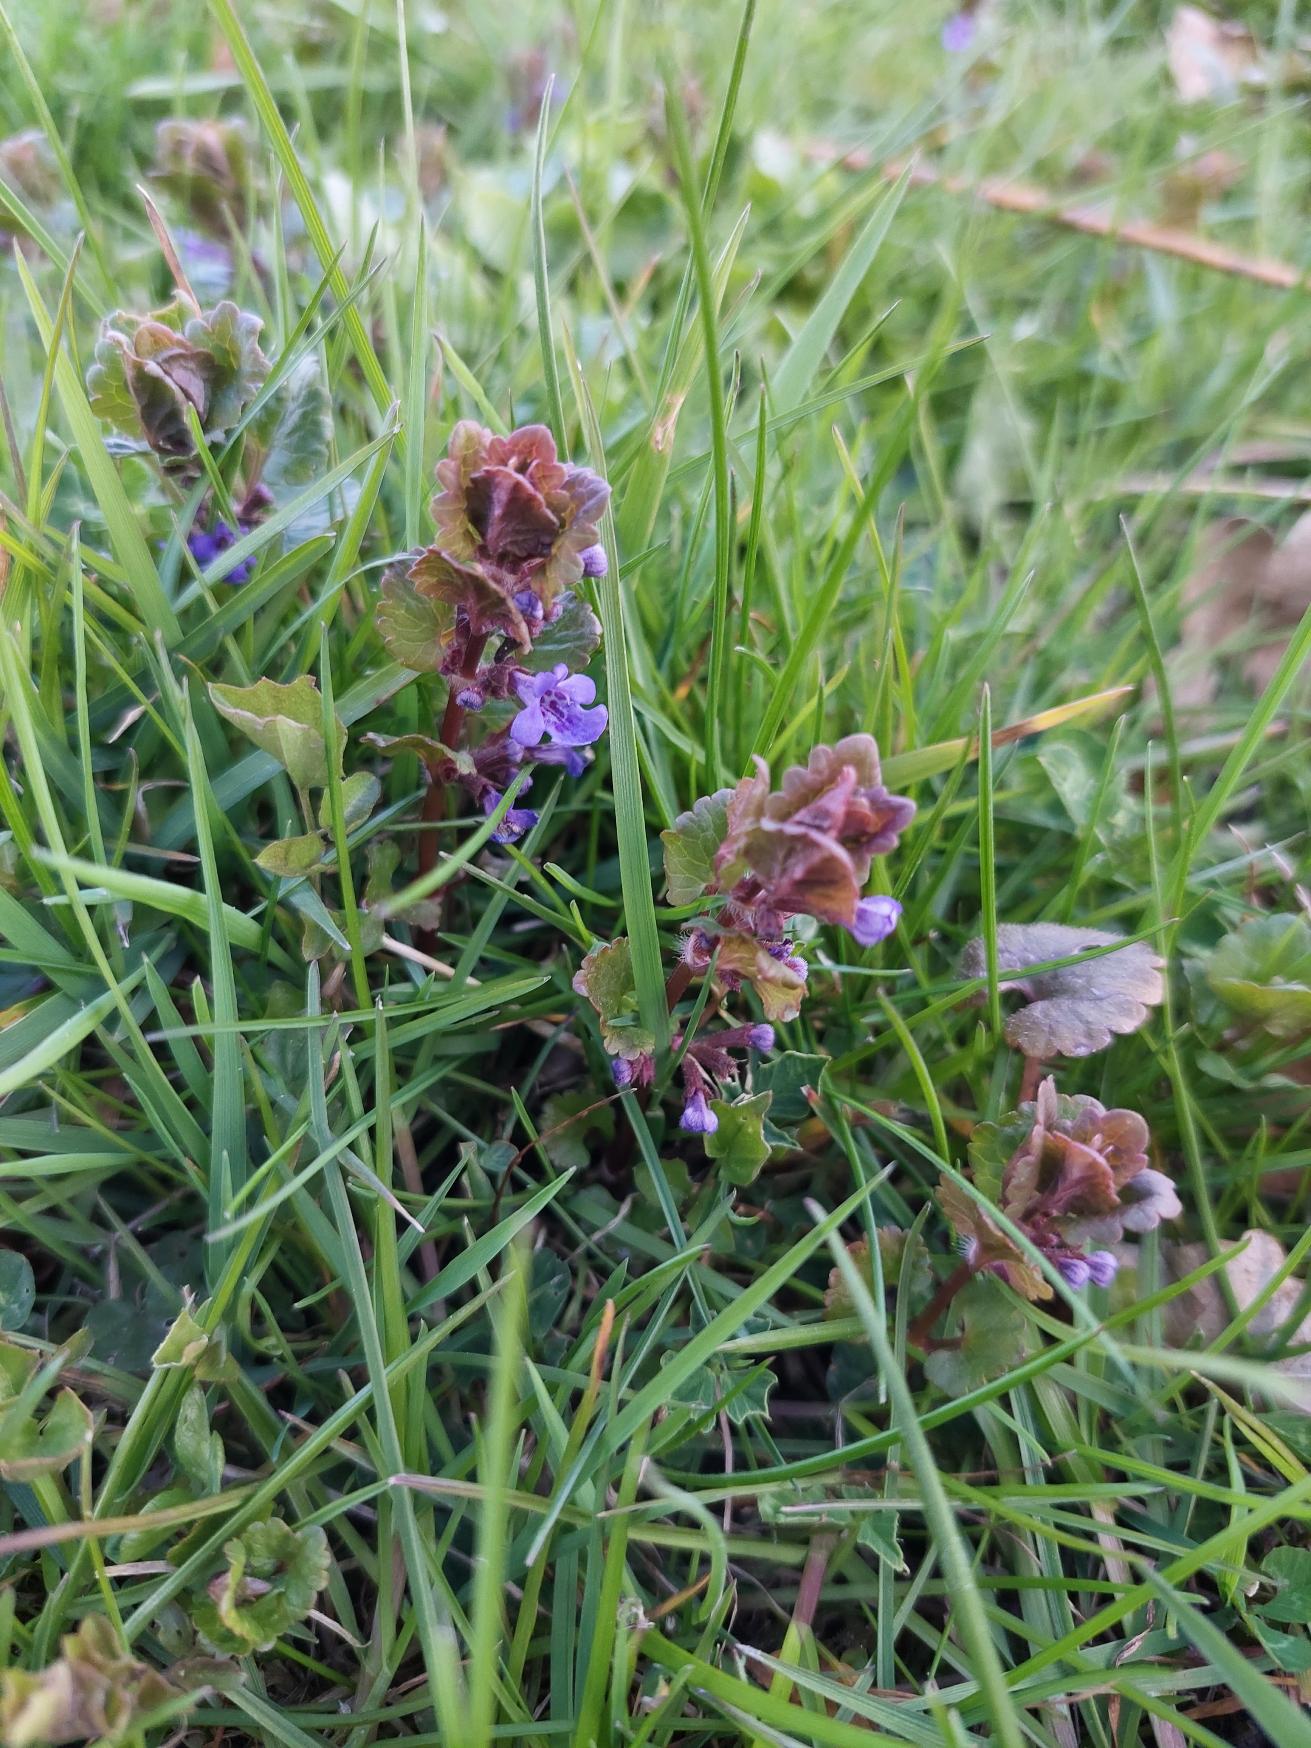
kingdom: Plantae
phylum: Tracheophyta
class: Magnoliopsida
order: Lamiales
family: Lamiaceae
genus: Glechoma
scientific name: Glechoma hederacea
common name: Korsknap
